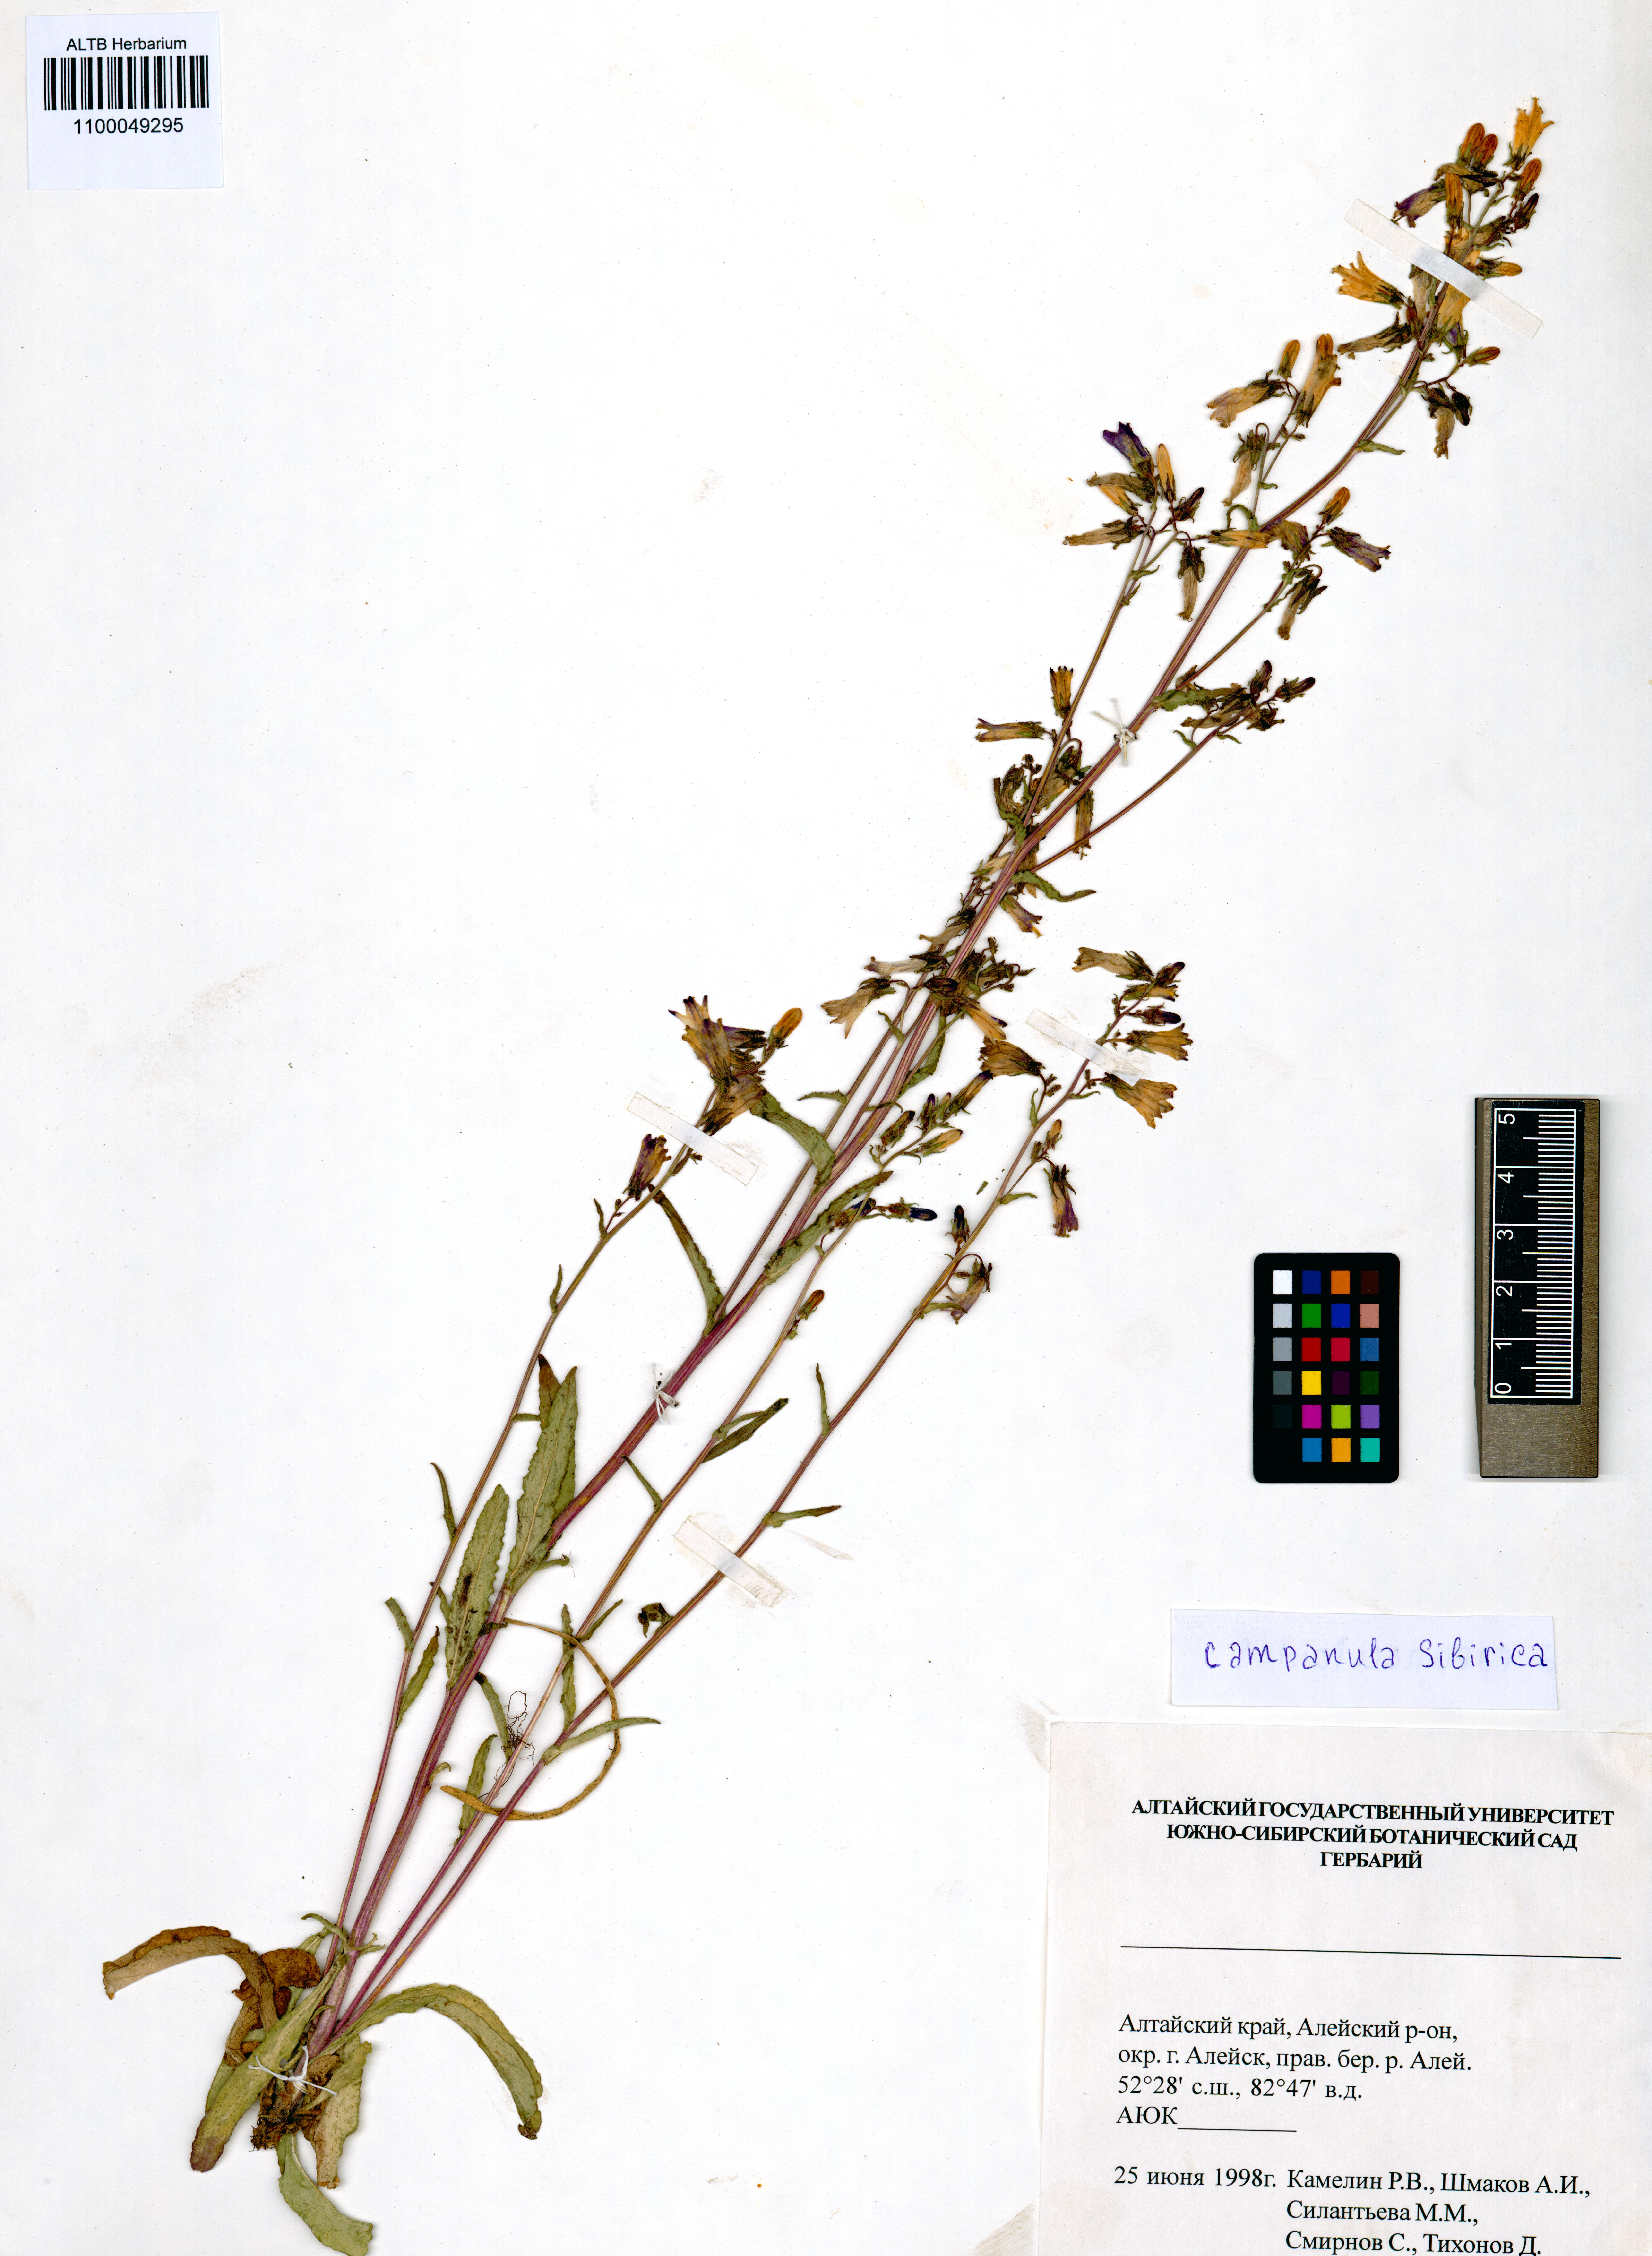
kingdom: Plantae
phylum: Tracheophyta
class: Magnoliopsida
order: Asterales
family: Campanulaceae
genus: Campanula
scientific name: Campanula sibirica
